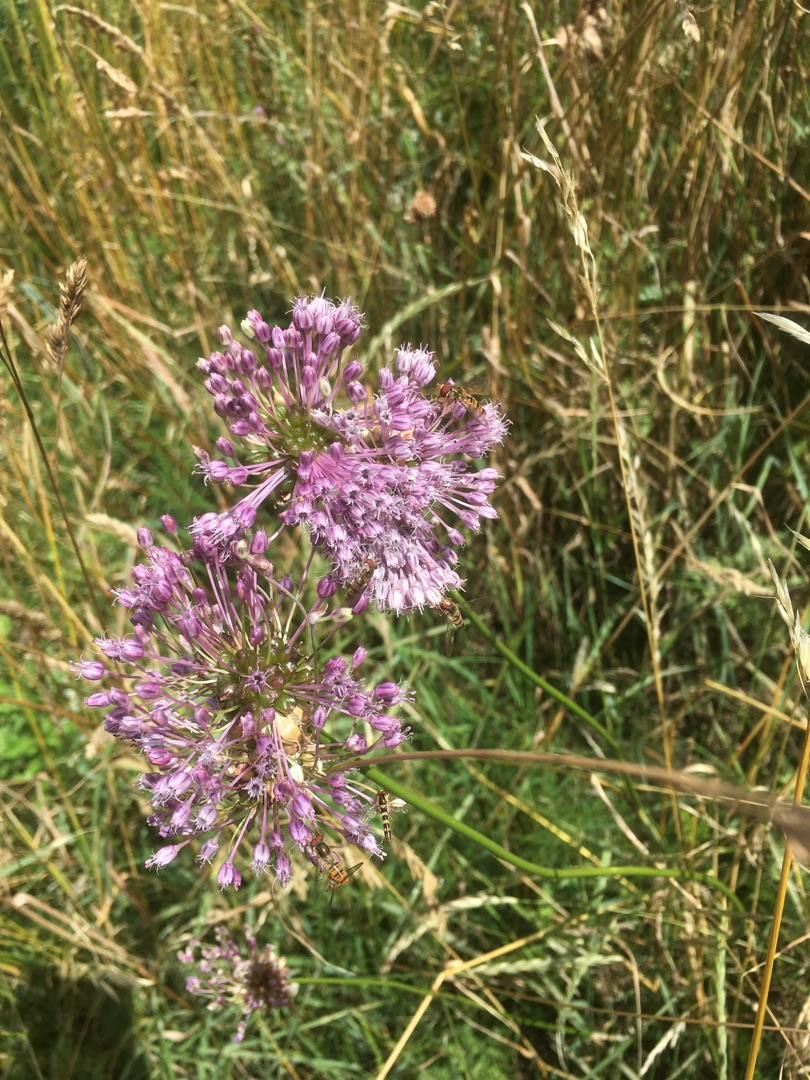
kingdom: Plantae
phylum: Tracheophyta
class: Liliopsida
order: Asparagales
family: Amaryllidaceae
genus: Allium
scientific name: Allium vineale
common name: Purpur sand-løg
